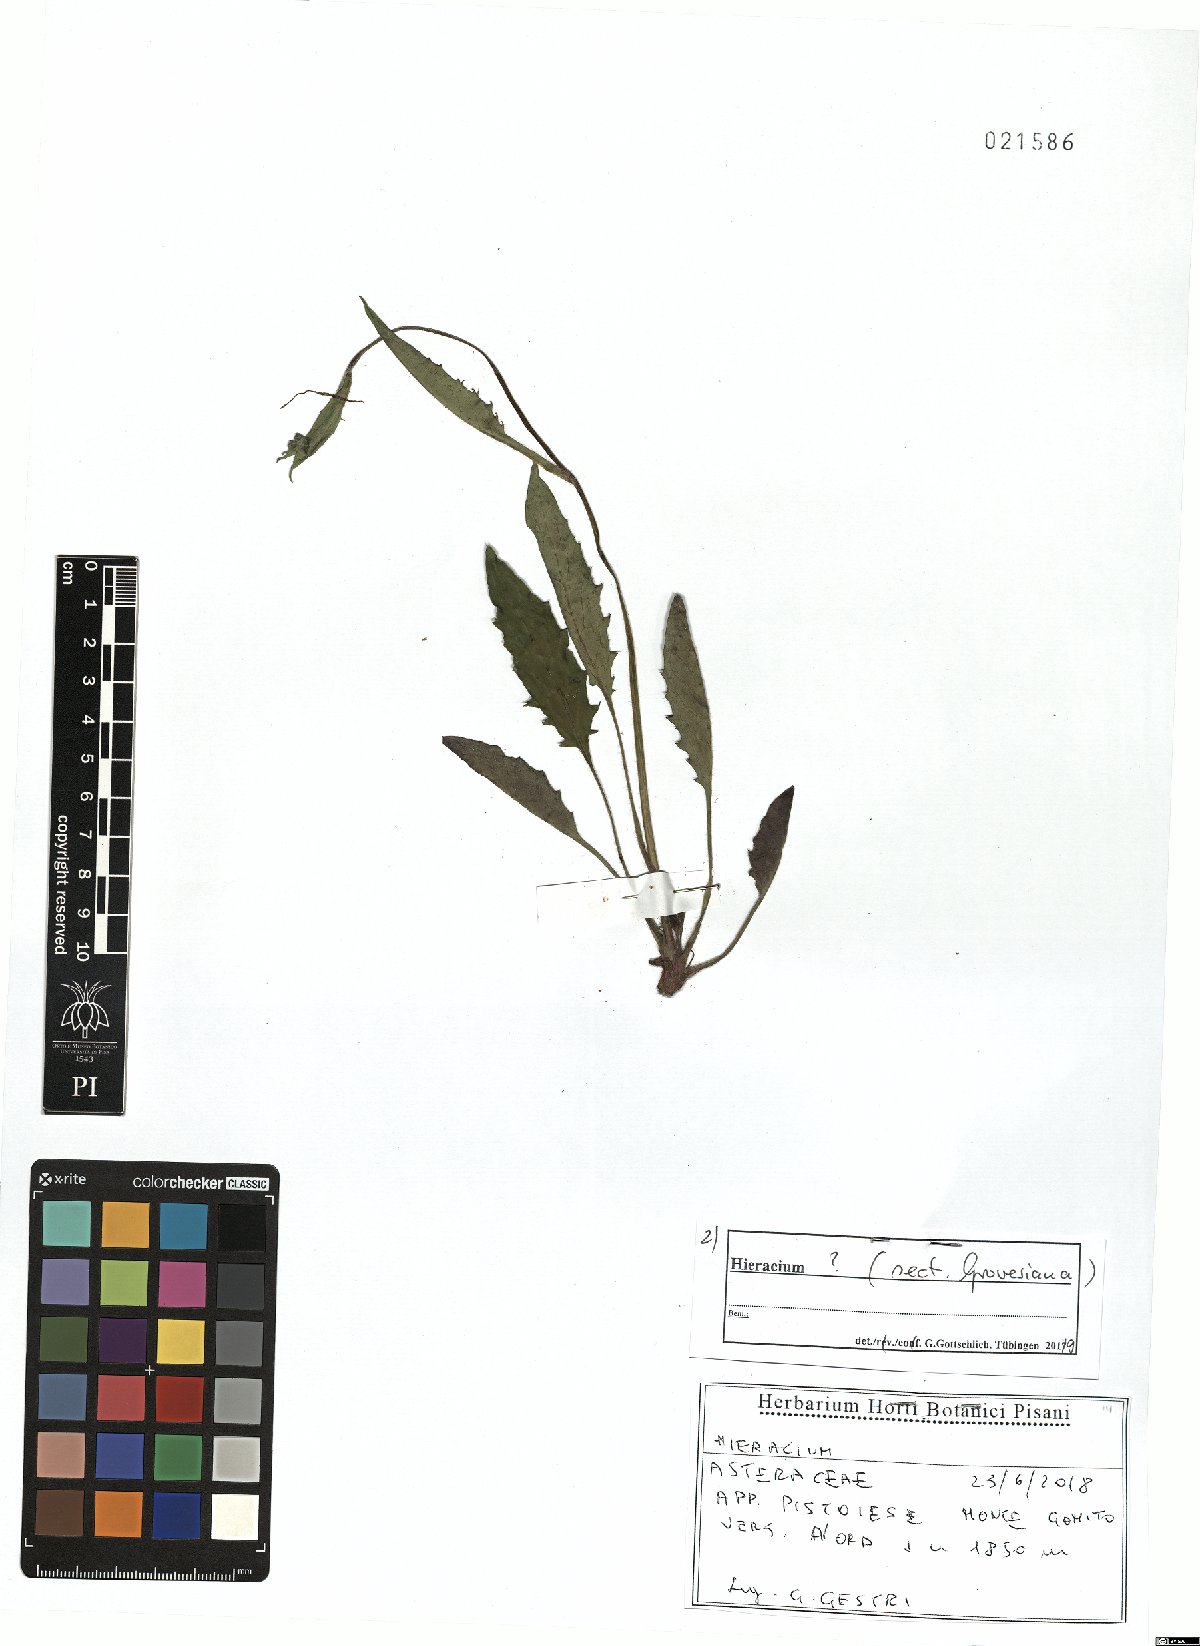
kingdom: Plantae
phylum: Tracheophyta
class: Magnoliopsida
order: Asterales
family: Asteraceae
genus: Hieracium
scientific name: Hieracium grovesianum
